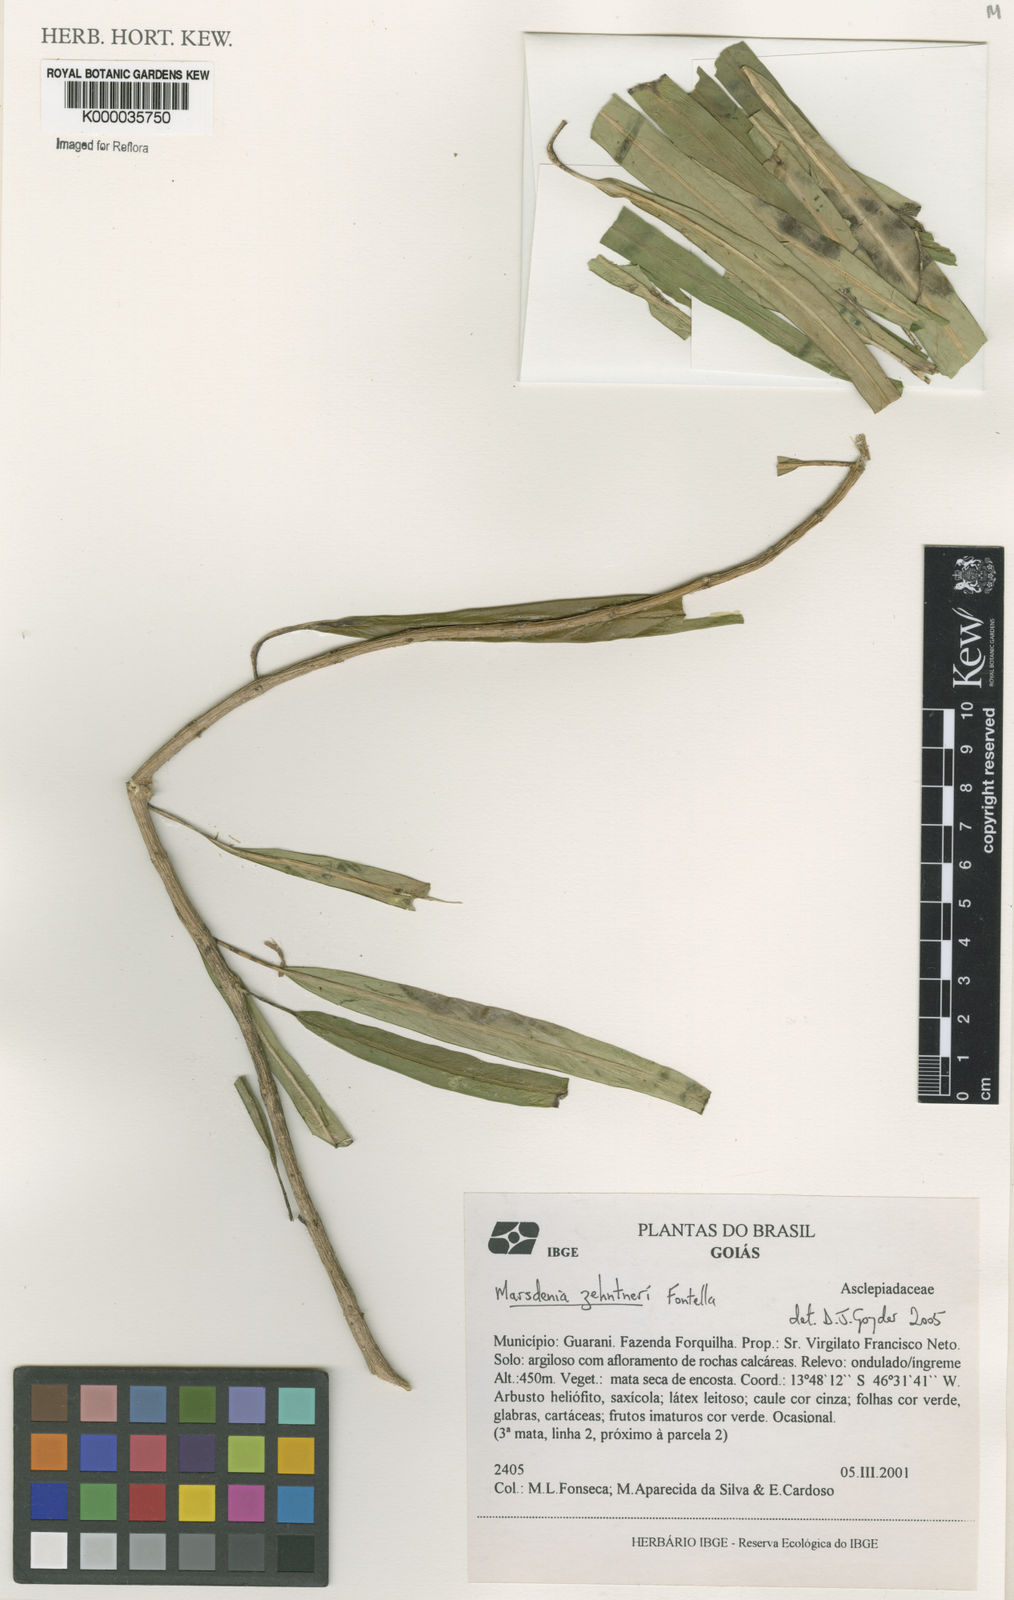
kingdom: Plantae
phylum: Tracheophyta
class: Magnoliopsida
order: Gentianales
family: Apocynaceae
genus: Ruehssia
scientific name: Ruehssia zehntneri
